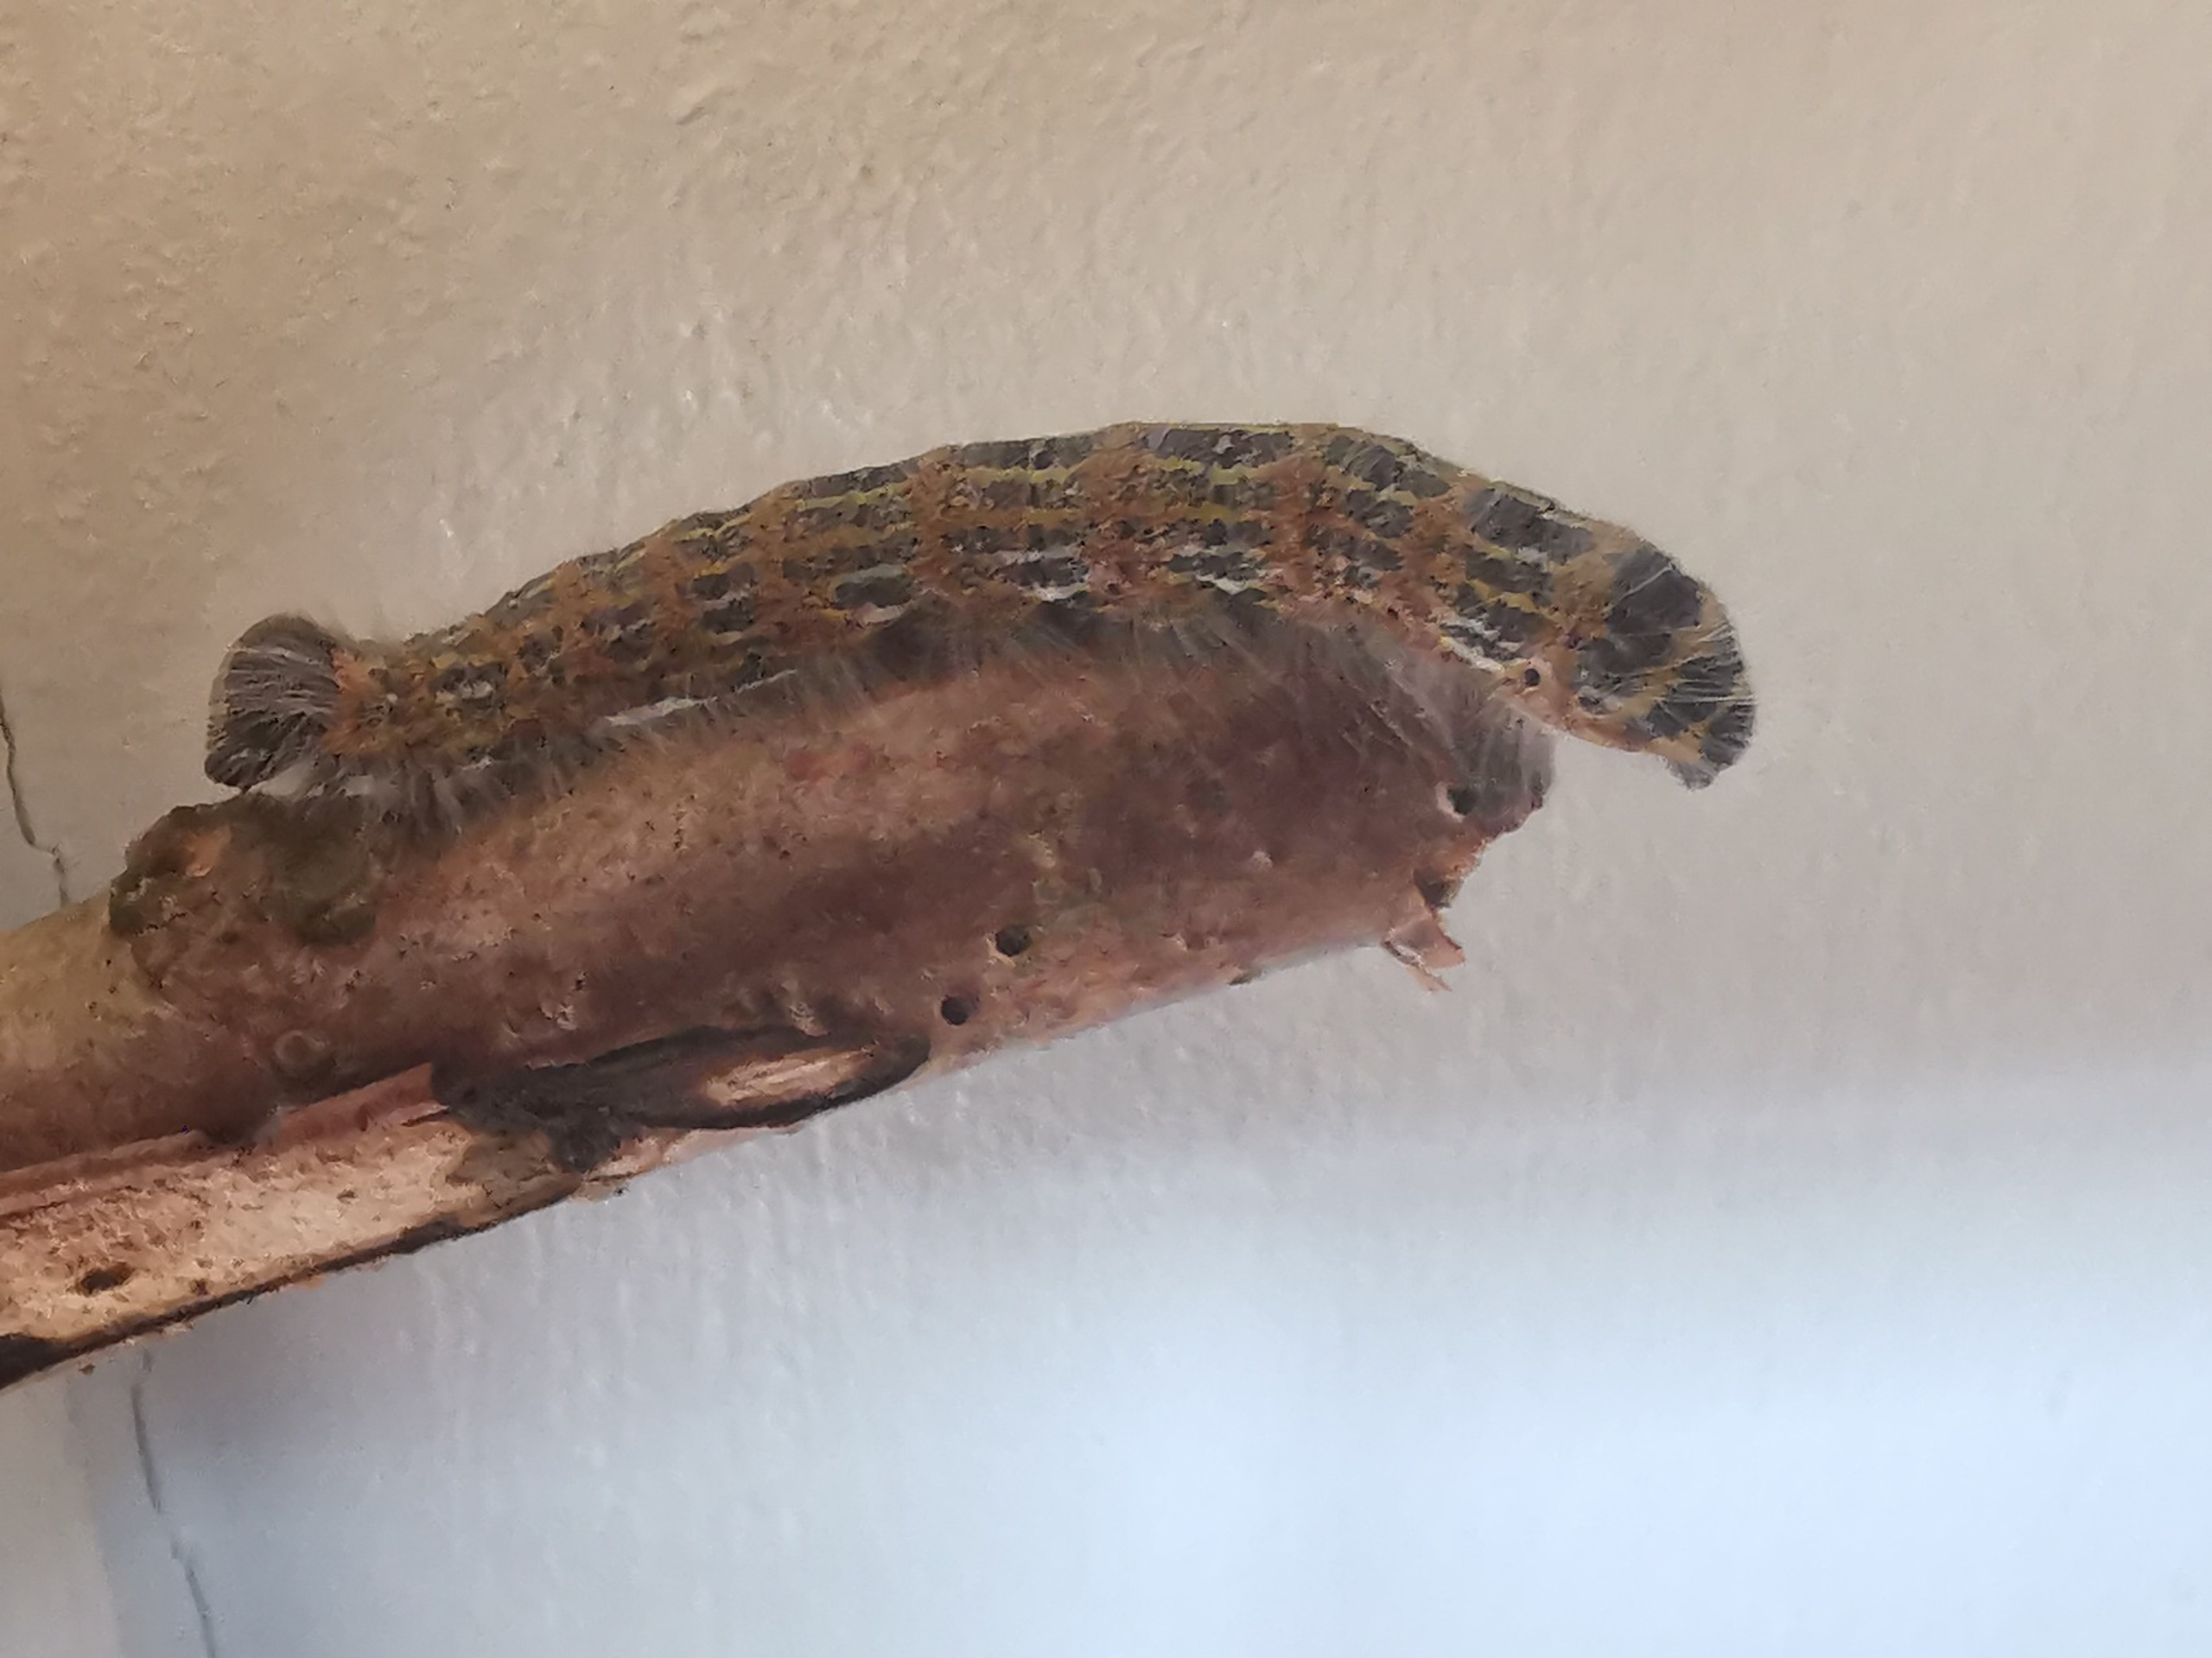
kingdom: Animalia
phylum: Arthropoda
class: Insecta
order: Lepidoptera
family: Notodontidae
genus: Phalera
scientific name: Phalera bucephala
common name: Måneplet
